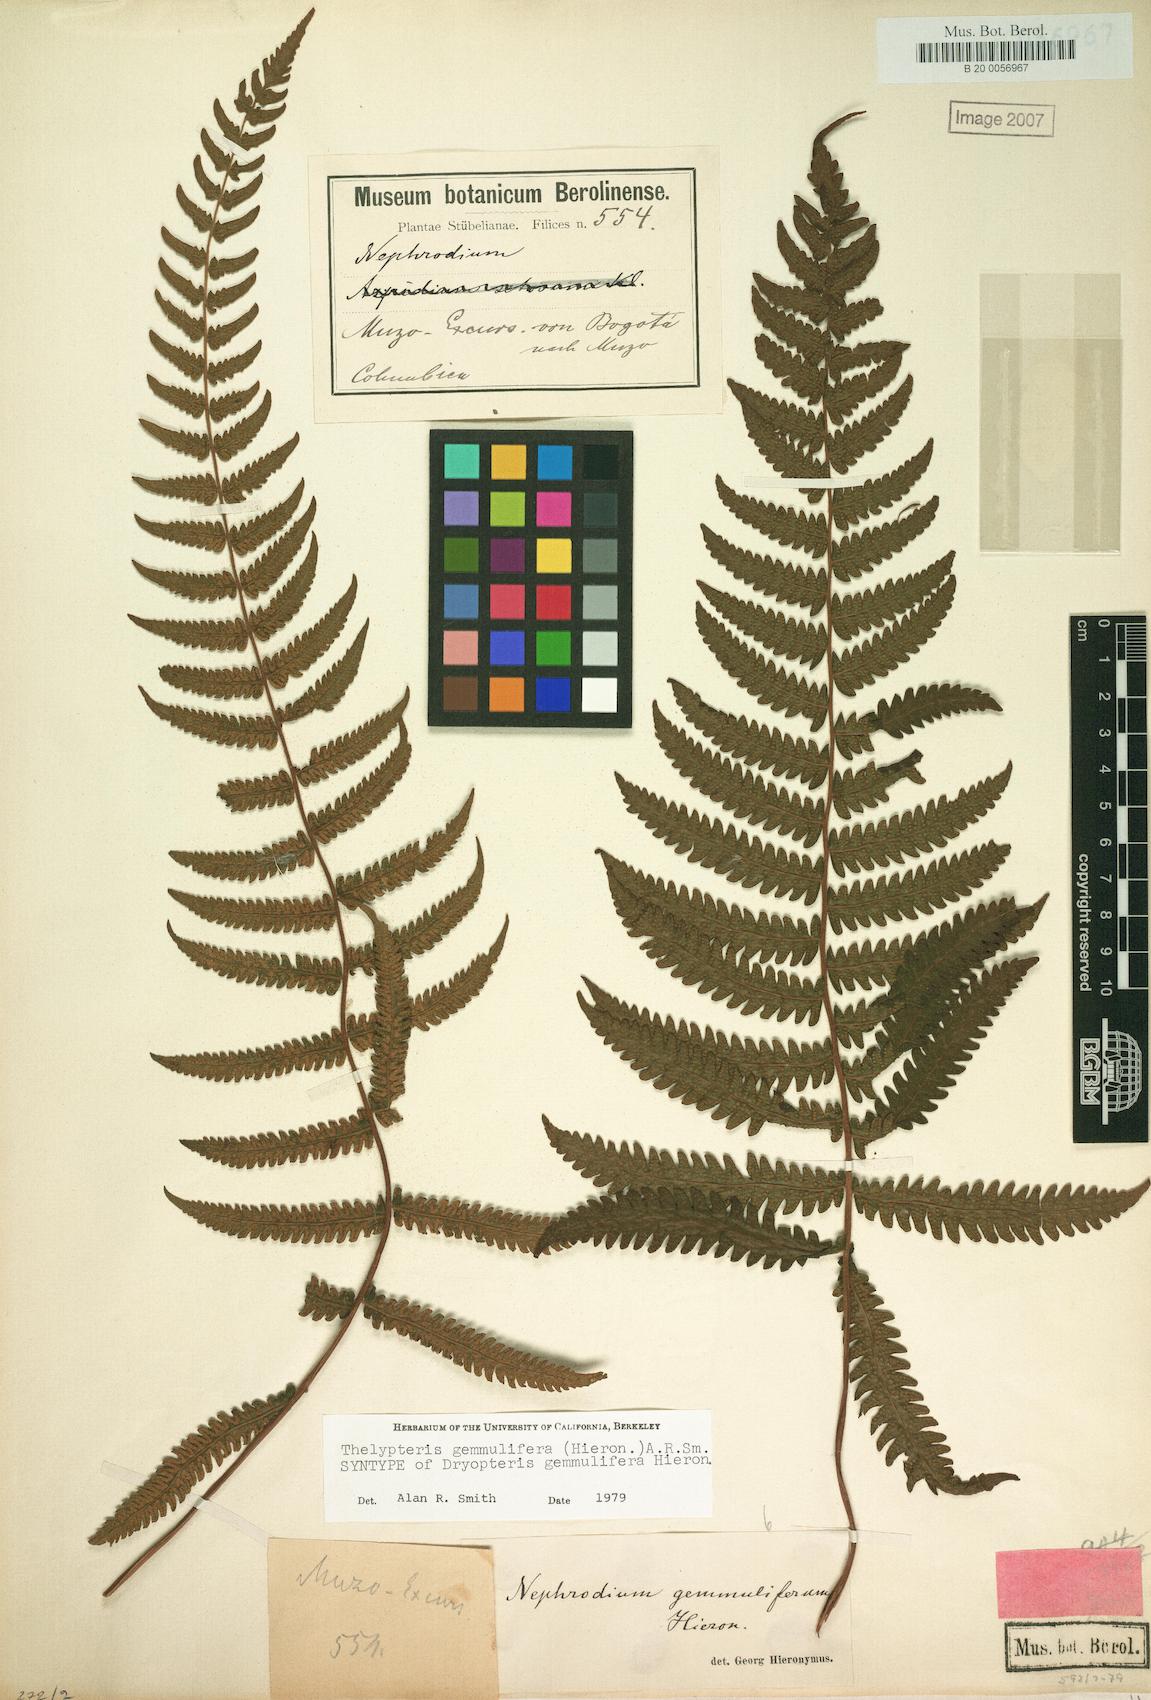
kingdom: Plantae
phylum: Tracheophyta
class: Polypodiopsida
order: Polypodiales
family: Thelypteridaceae
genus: Goniopteris
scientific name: Goniopteris gemmulifera
